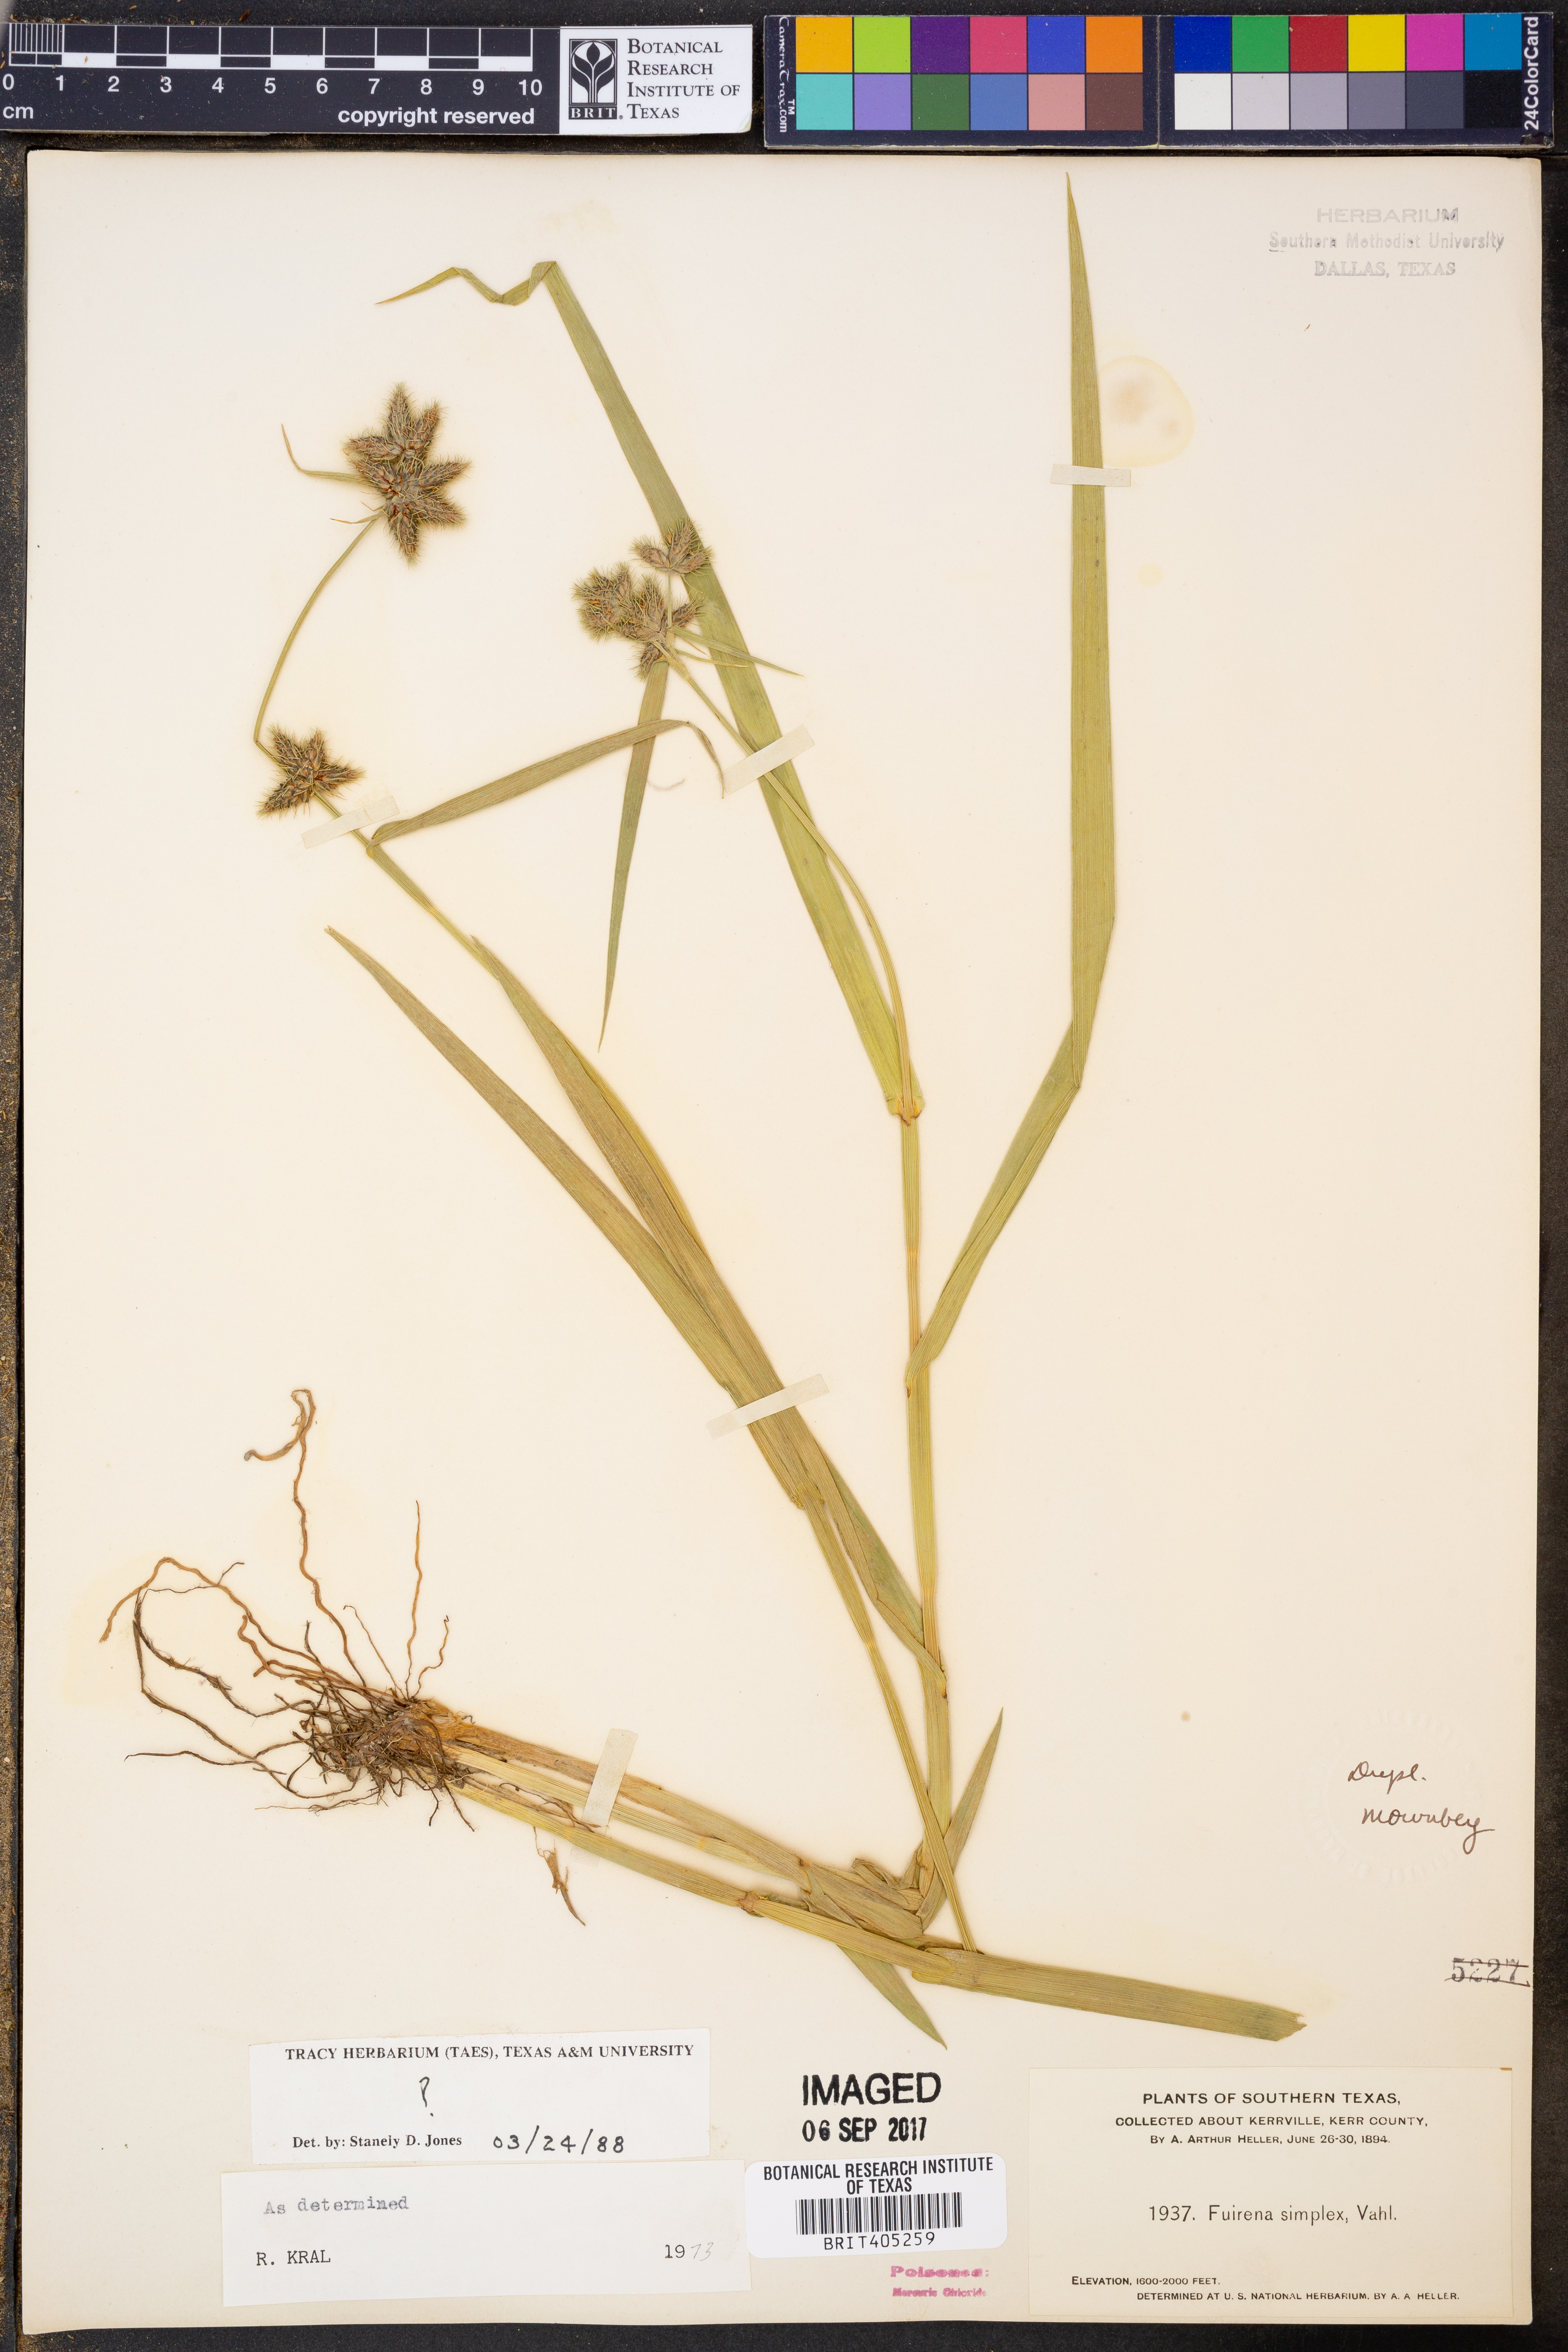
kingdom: Plantae
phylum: Tracheophyta
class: Liliopsida
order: Poales
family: Cyperaceae
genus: Fuirena
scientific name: Fuirena simplex
